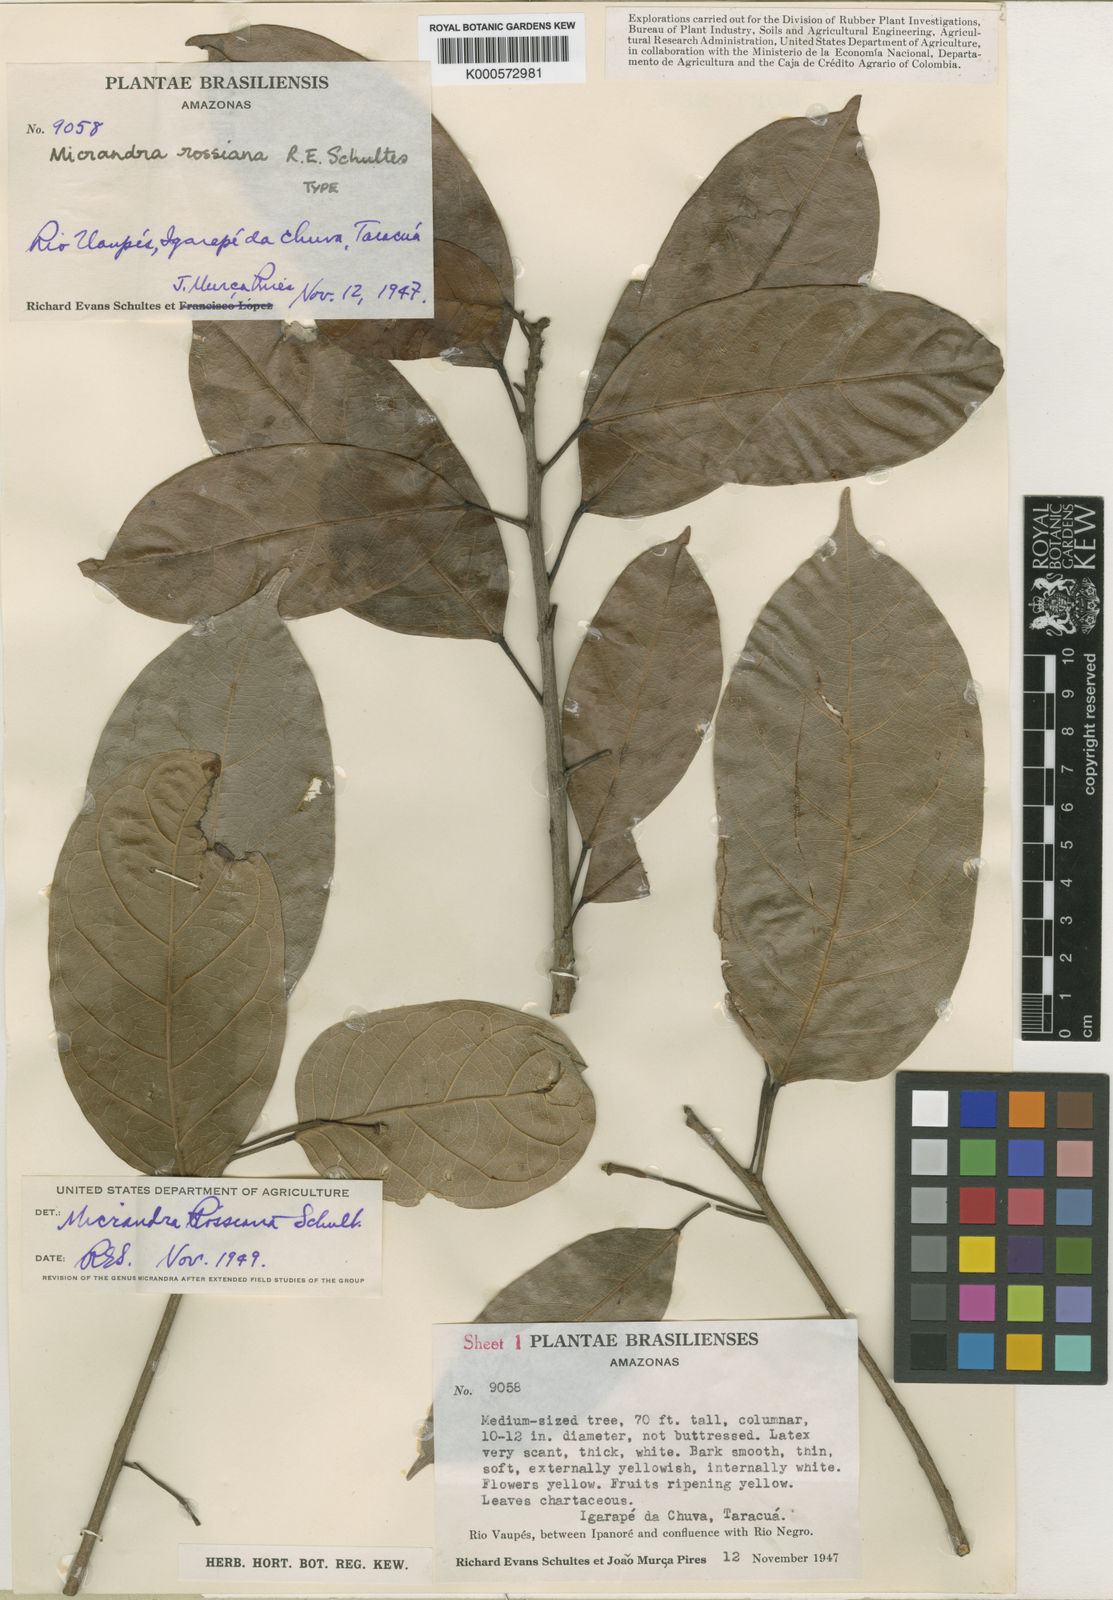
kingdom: Plantae
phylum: Tracheophyta
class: Magnoliopsida
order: Malpighiales
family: Euphorbiaceae
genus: Micrandra
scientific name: Micrandra rossiana
